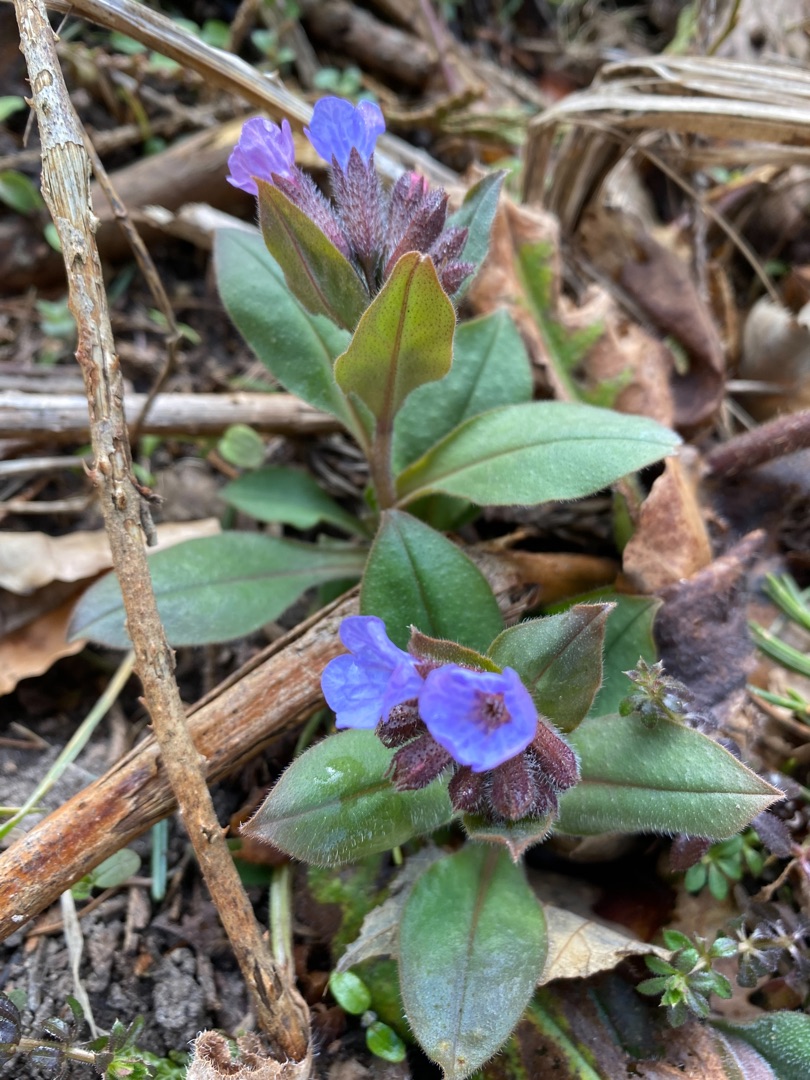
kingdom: Plantae
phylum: Tracheophyta
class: Magnoliopsida
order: Boraginales
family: Boraginaceae
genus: Pulmonaria
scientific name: Pulmonaria obscura
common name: Almindelig lungeurt
